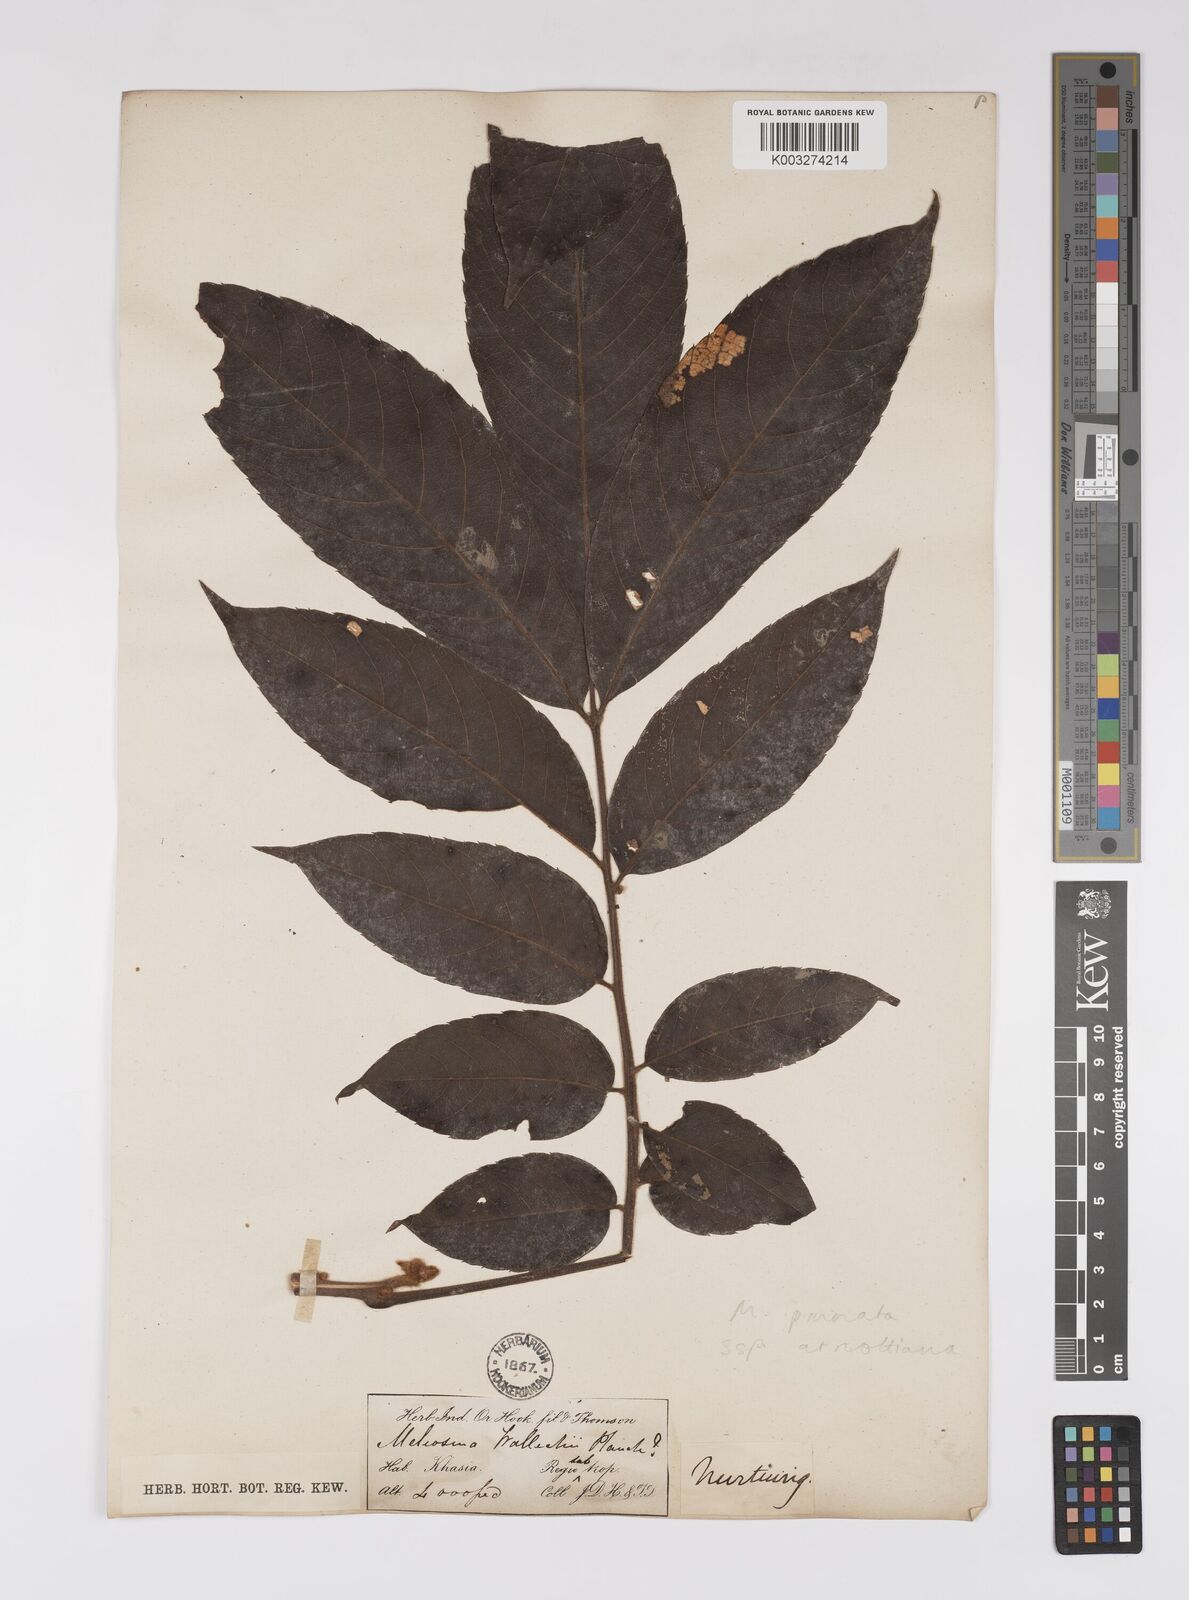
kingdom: Plantae
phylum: Tracheophyta
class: Magnoliopsida
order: Proteales
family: Sabiaceae
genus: Meliosma
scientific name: Meliosma rhoifolia
